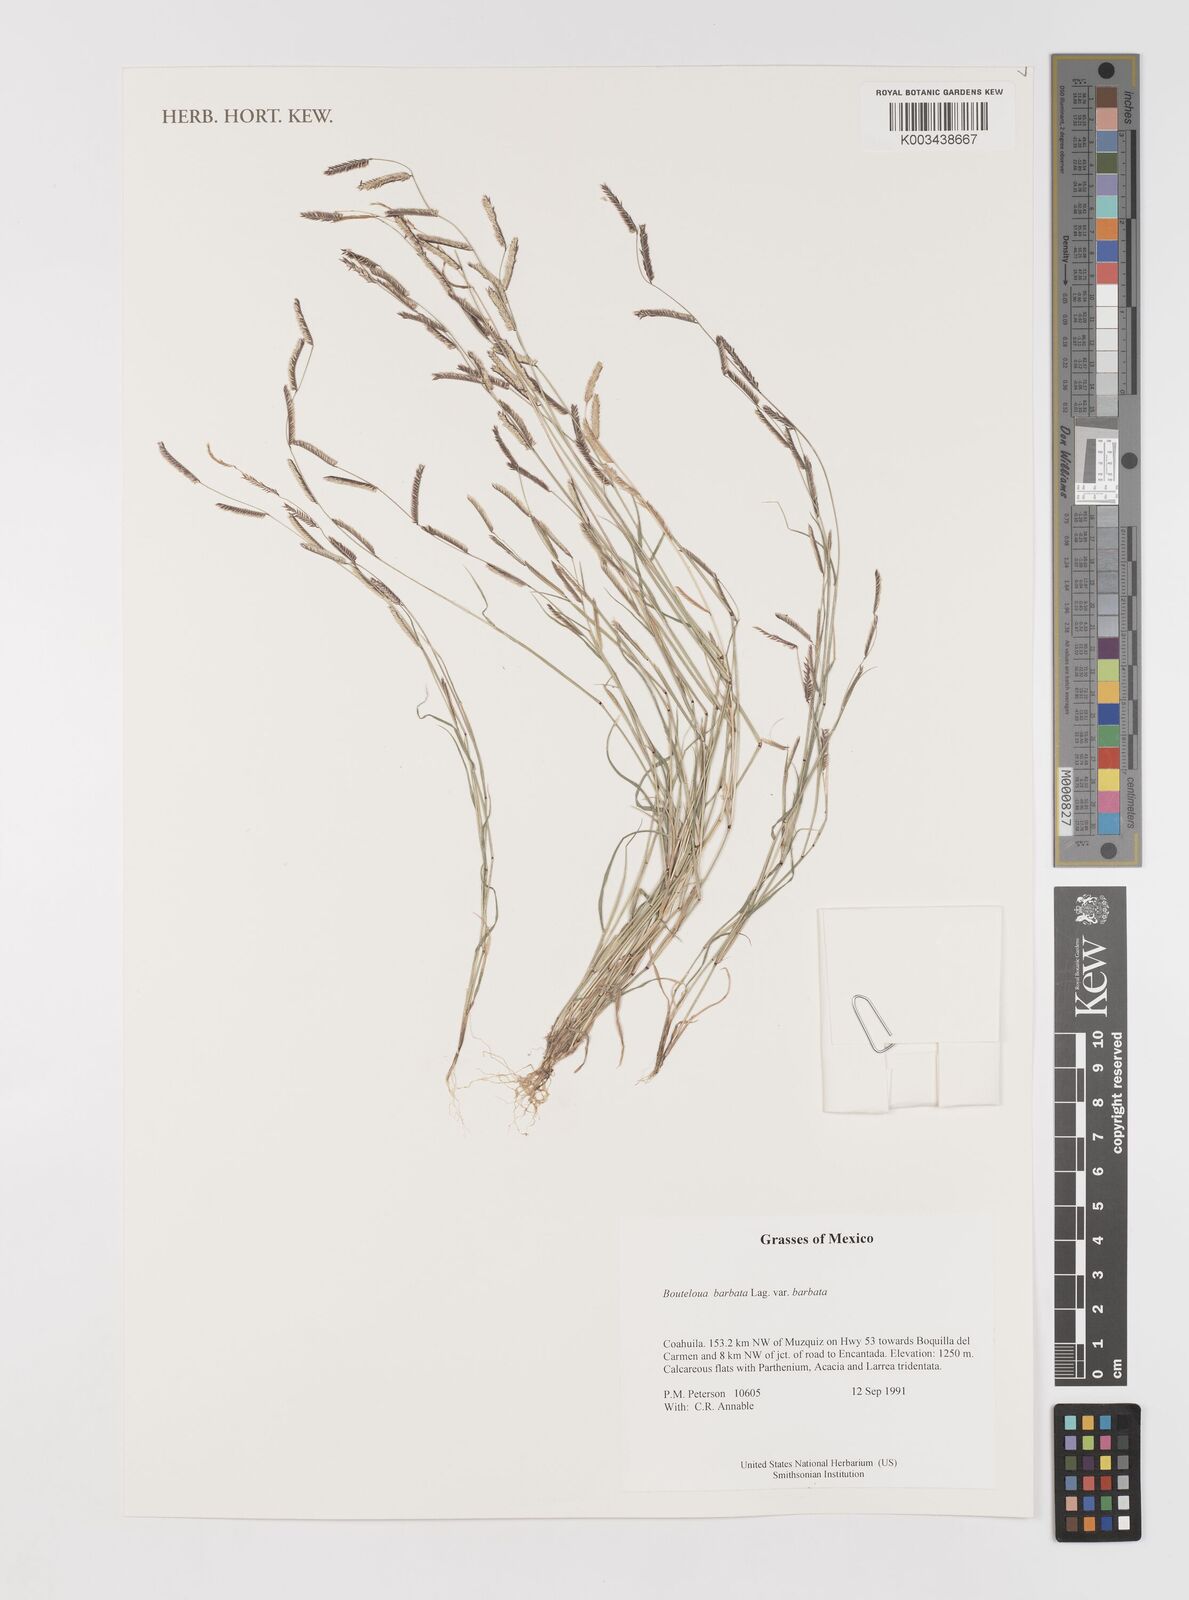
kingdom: Plantae
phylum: Tracheophyta
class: Liliopsida
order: Poales
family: Poaceae
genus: Bouteloua
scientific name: Bouteloua
